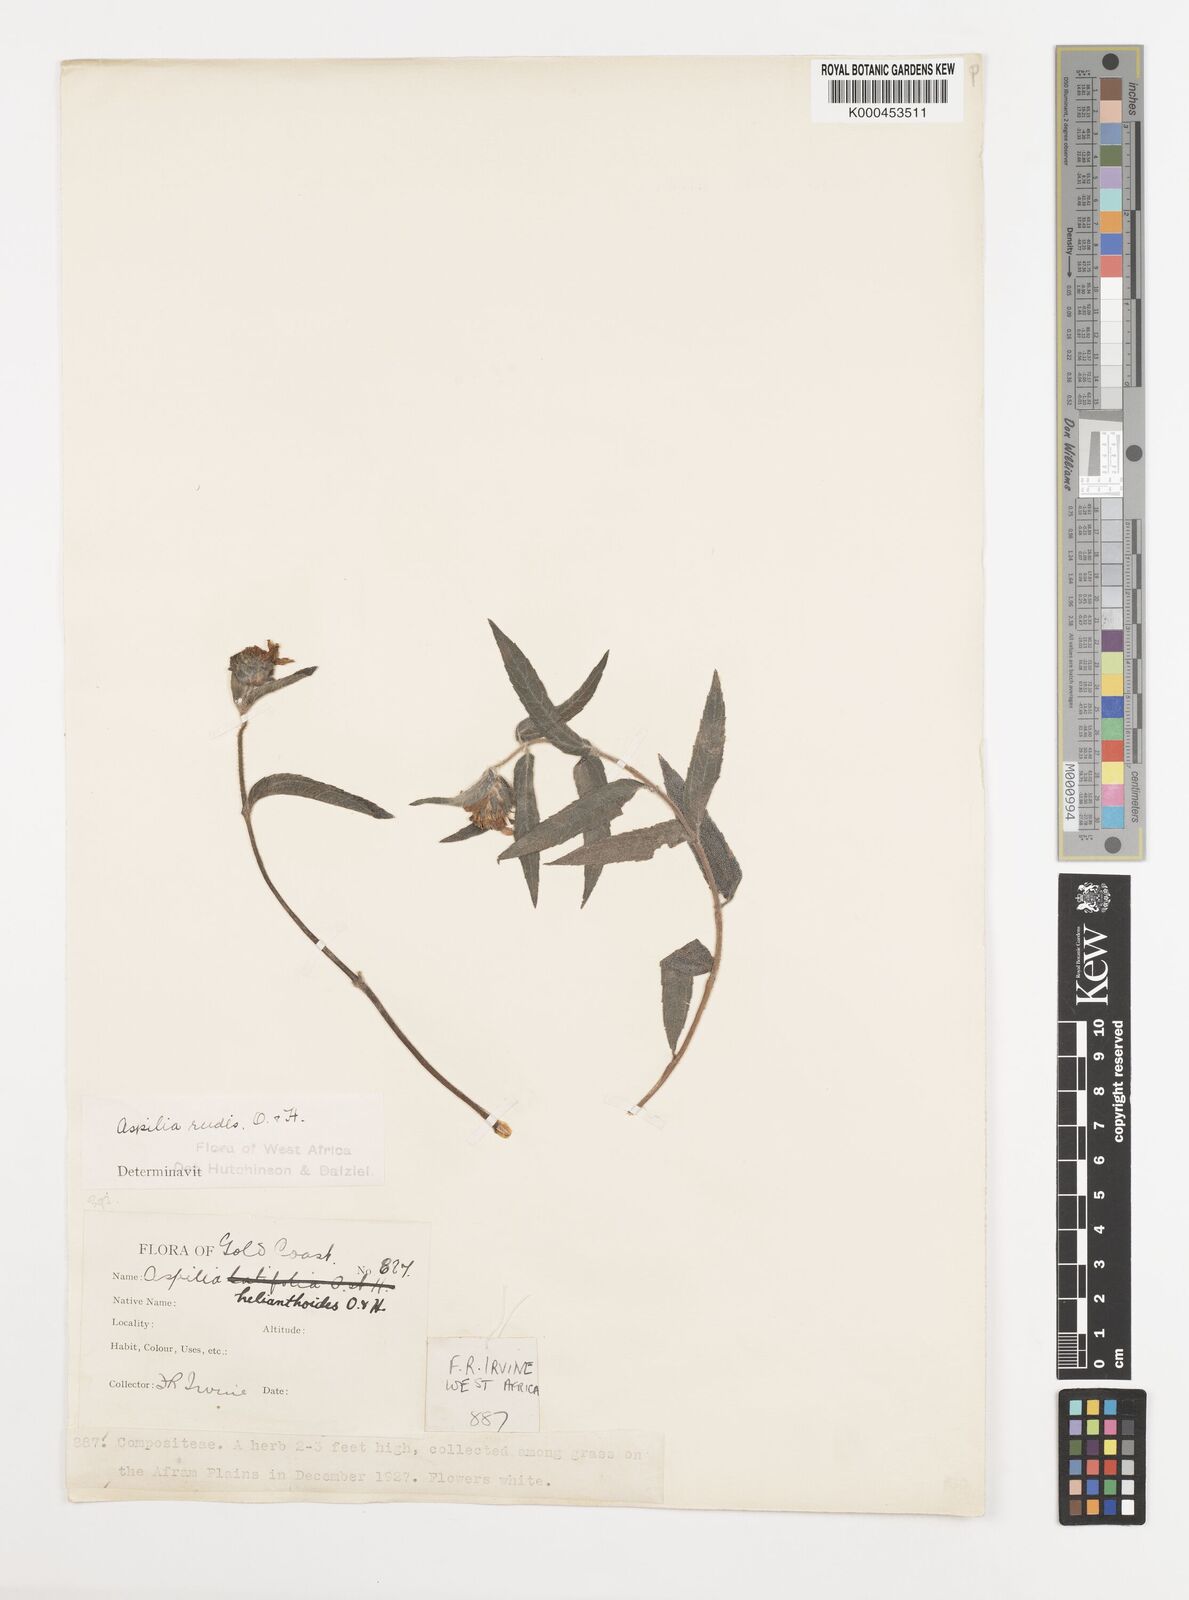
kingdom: Plantae
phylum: Tracheophyta
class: Magnoliopsida
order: Asterales
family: Asteraceae
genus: Aspilia
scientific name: Aspilia rudis
